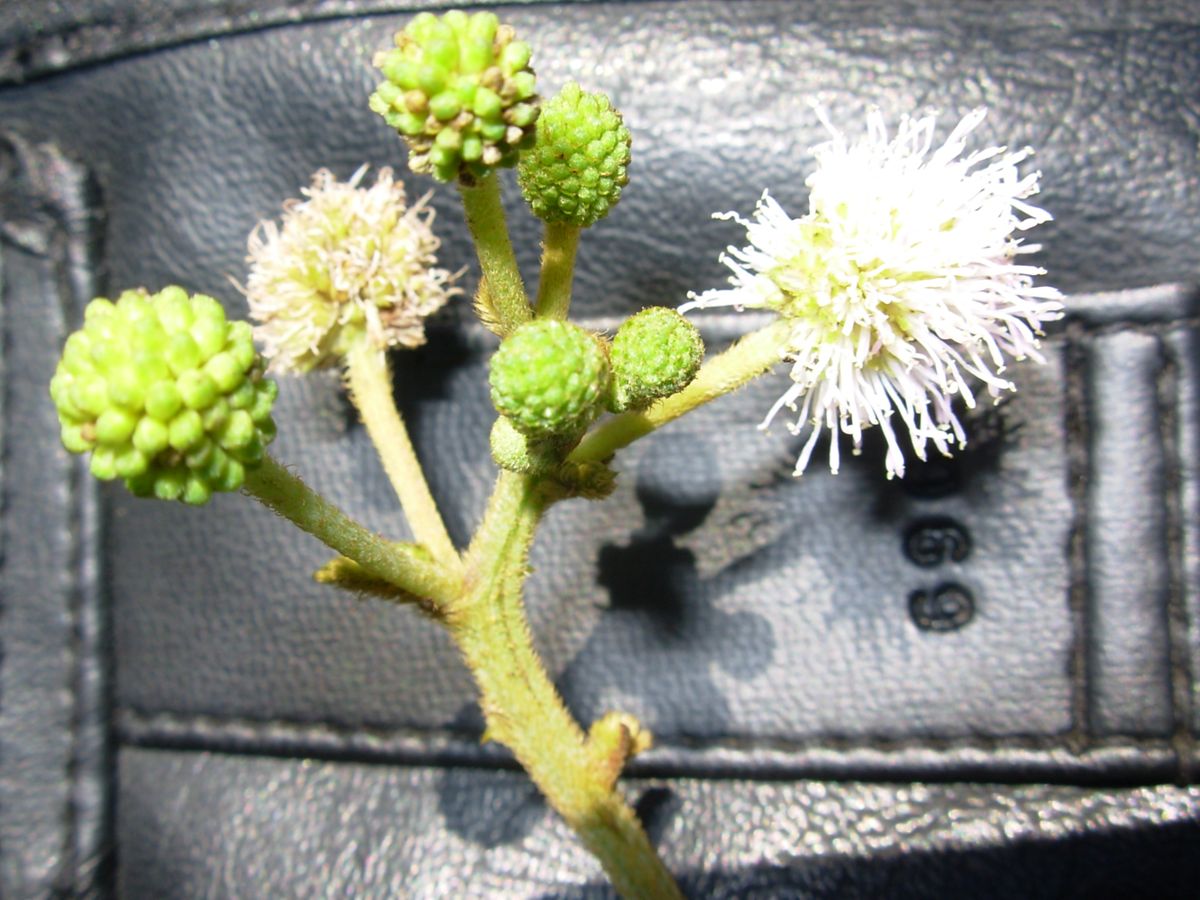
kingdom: Plantae
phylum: Tracheophyta
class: Magnoliopsida
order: Fabales
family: Fabaceae
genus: Mimosa
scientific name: Mimosa pigra
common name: Black mimosa
